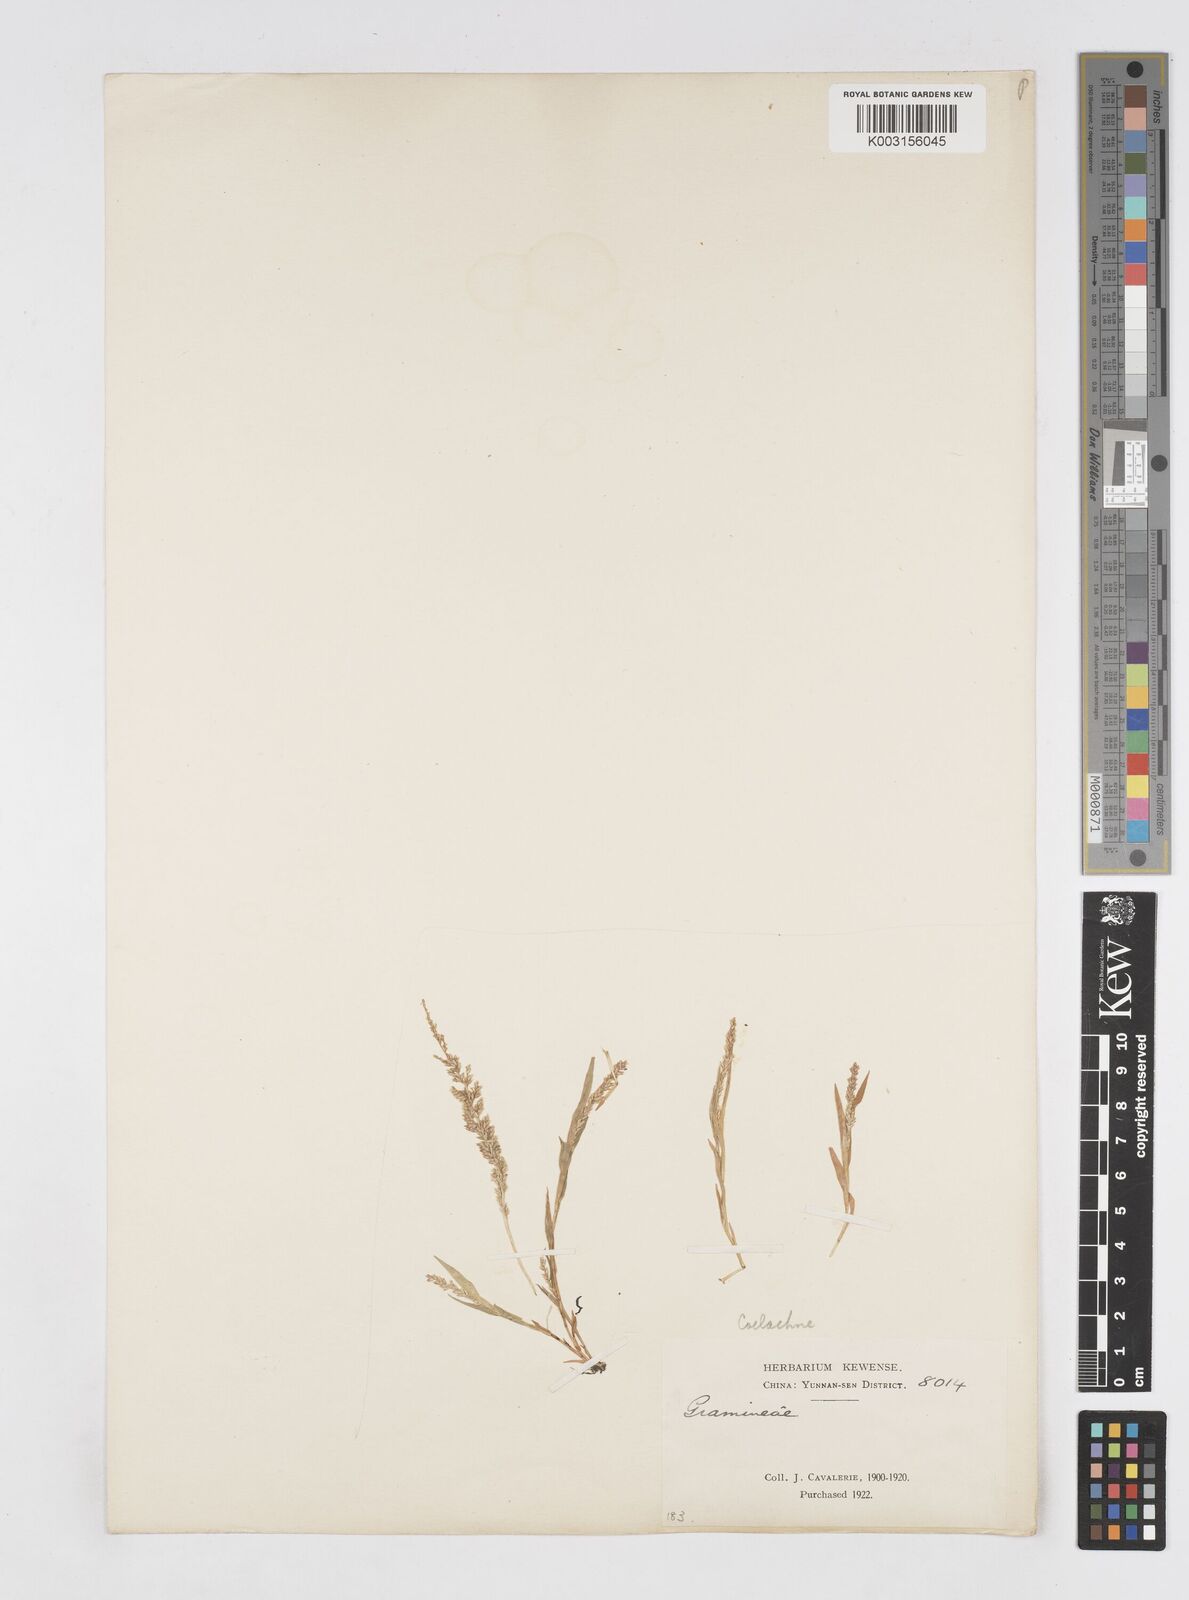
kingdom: Plantae
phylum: Tracheophyta
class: Liliopsida
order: Poales
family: Poaceae
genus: Coelachne
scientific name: Coelachne infirma
